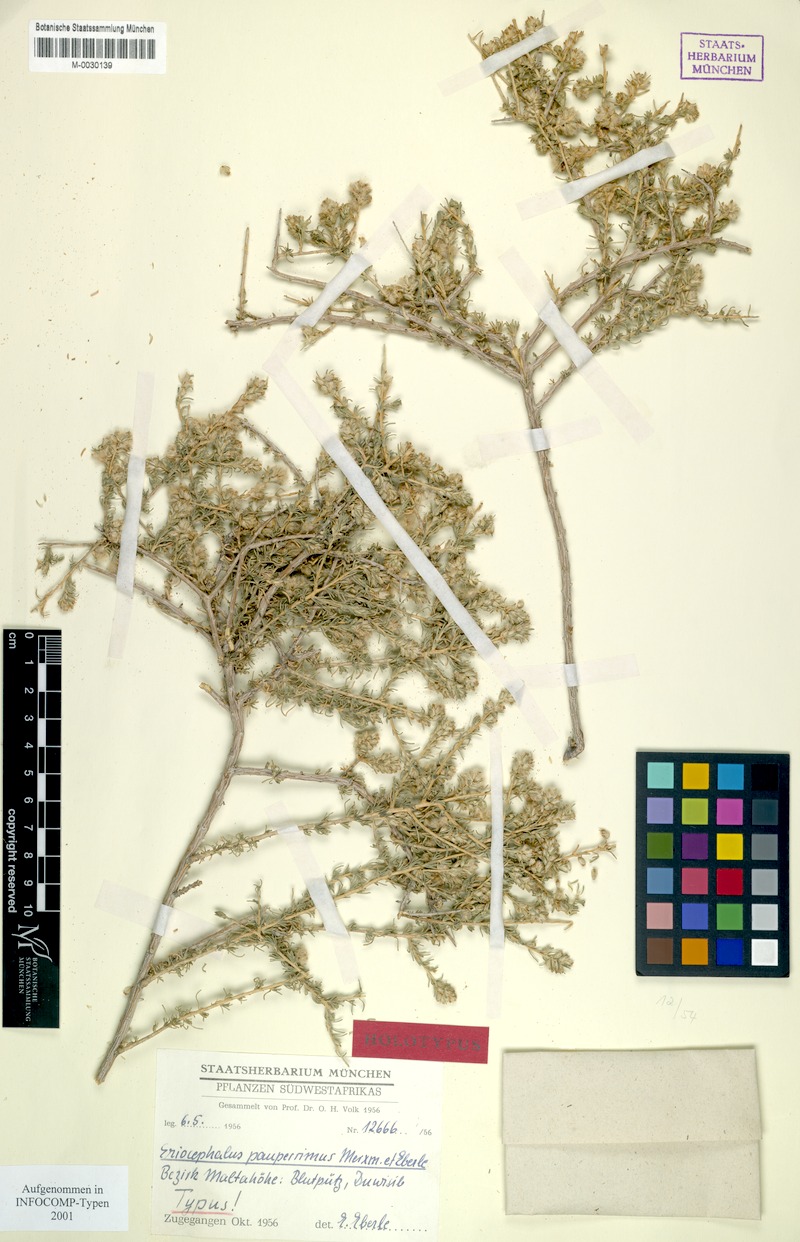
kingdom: Plantae
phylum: Tracheophyta
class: Magnoliopsida
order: Asterales
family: Asteraceae
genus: Eriocephalus
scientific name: Eriocephalus pauperrimus
